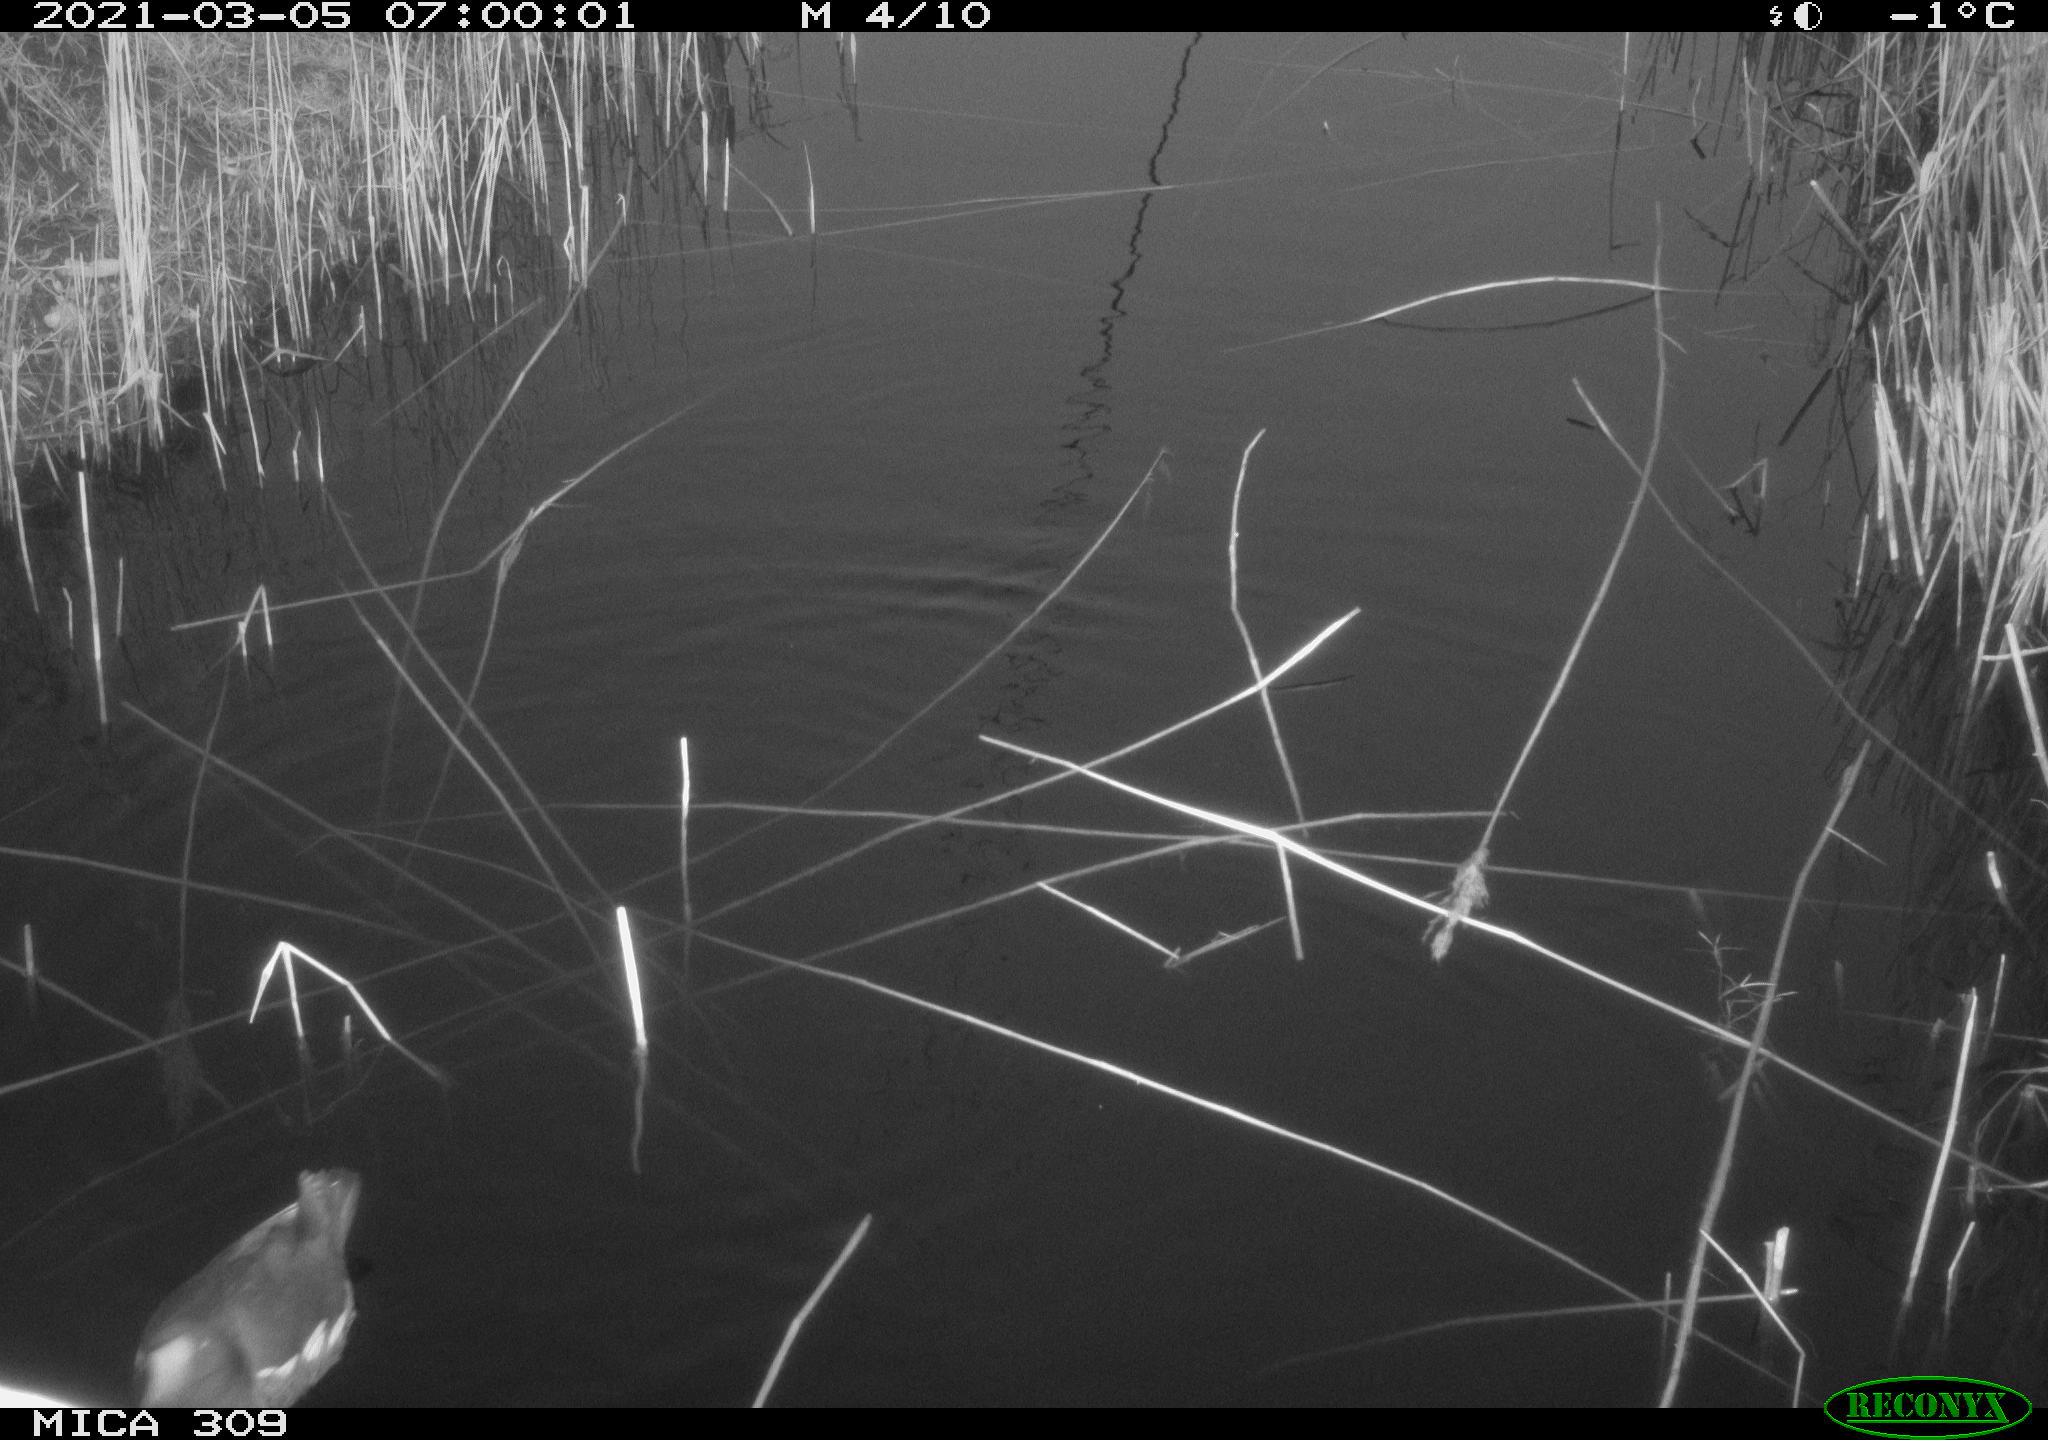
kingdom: Animalia
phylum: Chordata
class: Aves
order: Gruiformes
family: Rallidae
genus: Gallinula
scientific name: Gallinula chloropus
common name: Common moorhen
